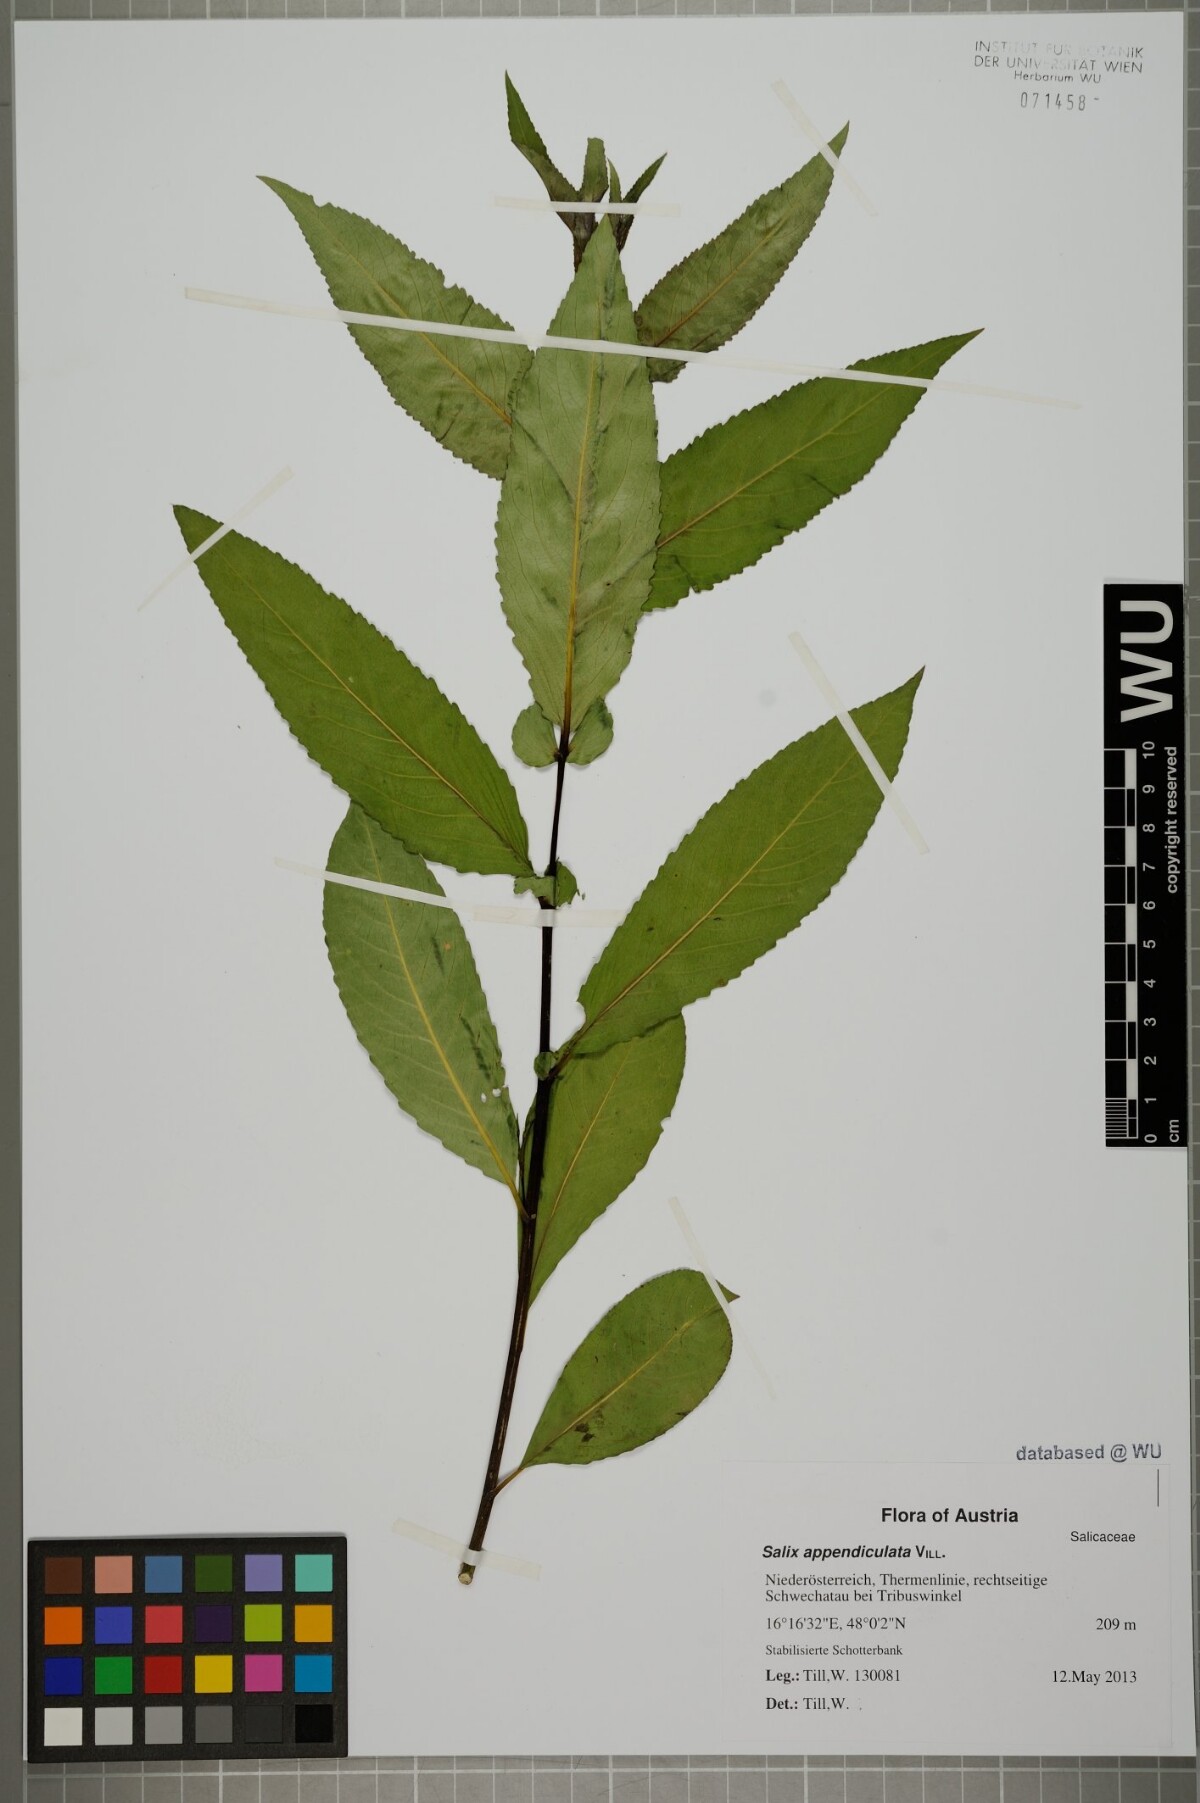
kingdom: Plantae
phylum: Tracheophyta
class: Magnoliopsida
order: Malpighiales
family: Salicaceae
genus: Salix
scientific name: Salix triandra
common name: Almond willow
